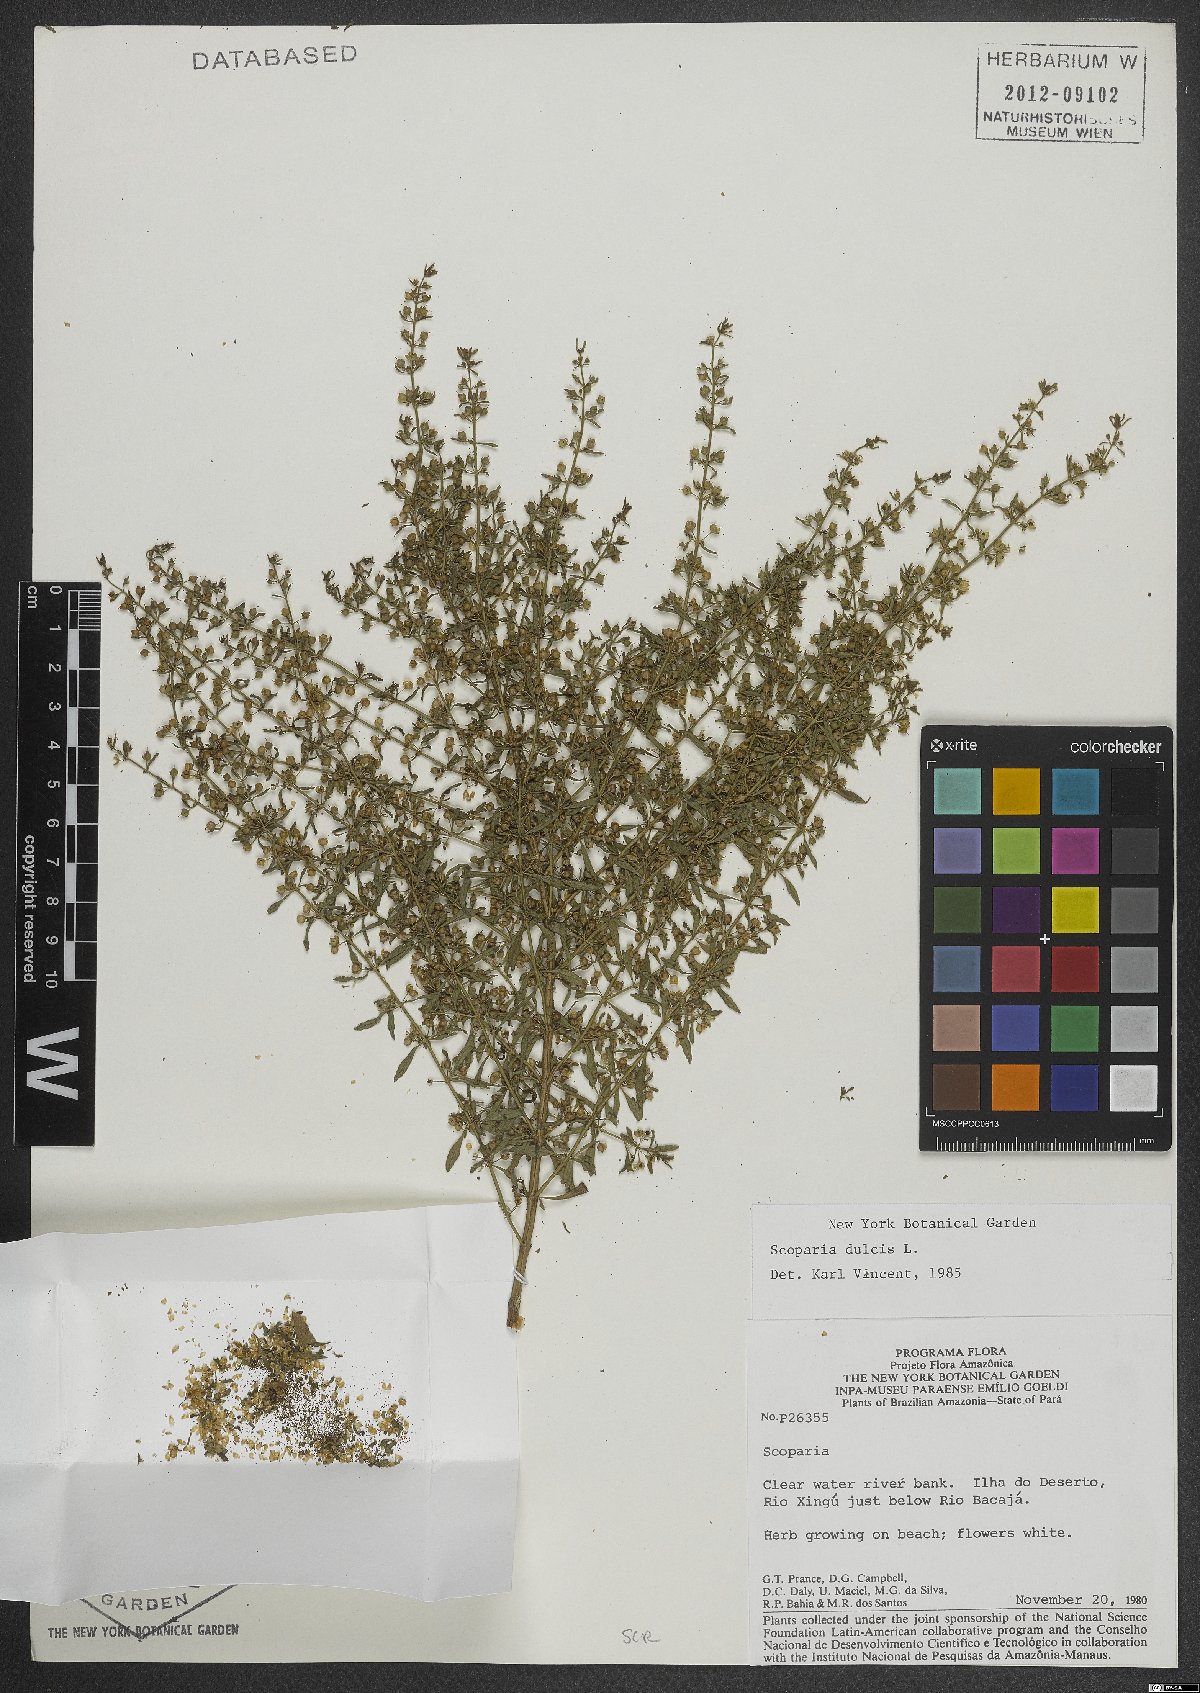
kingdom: Plantae
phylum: Tracheophyta
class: Magnoliopsida
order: Lamiales
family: Plantaginaceae
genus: Scoparia
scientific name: Scoparia dulcis
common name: Scoparia-weed
